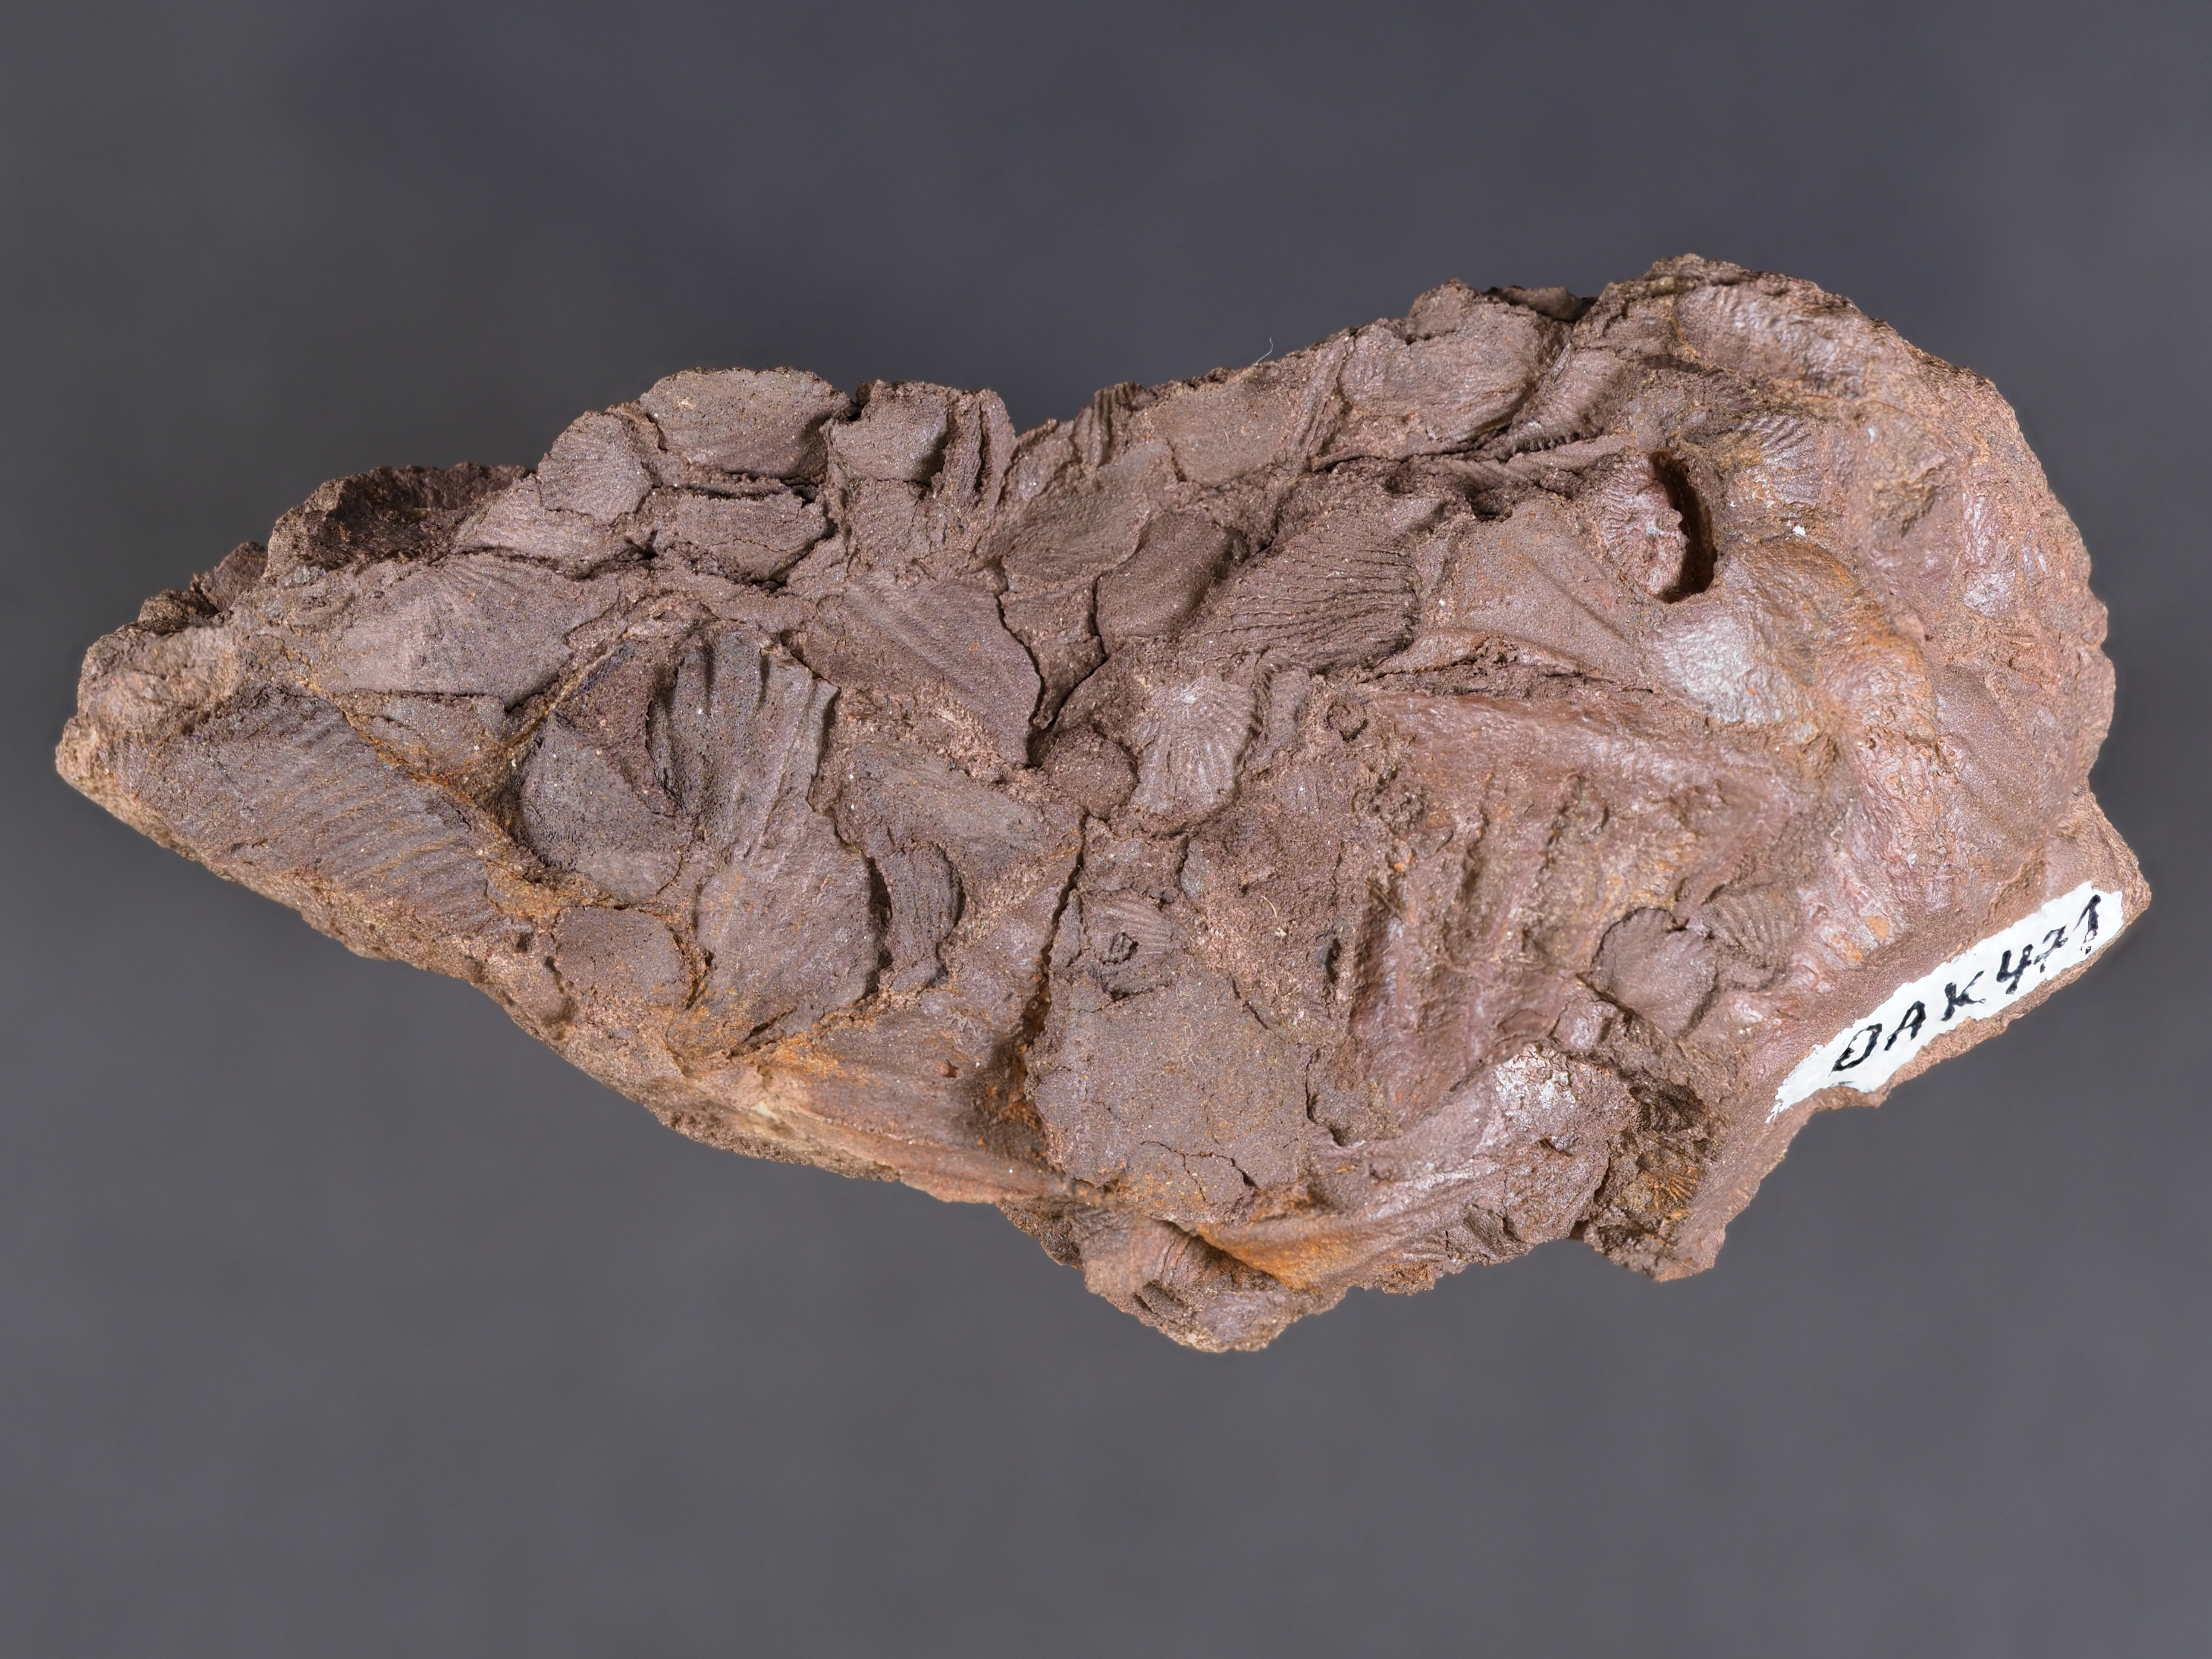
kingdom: Animalia
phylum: Arthropoda
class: Trilobita
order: Phacopida
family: Homalonotidae
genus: Digonus
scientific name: Digonus
